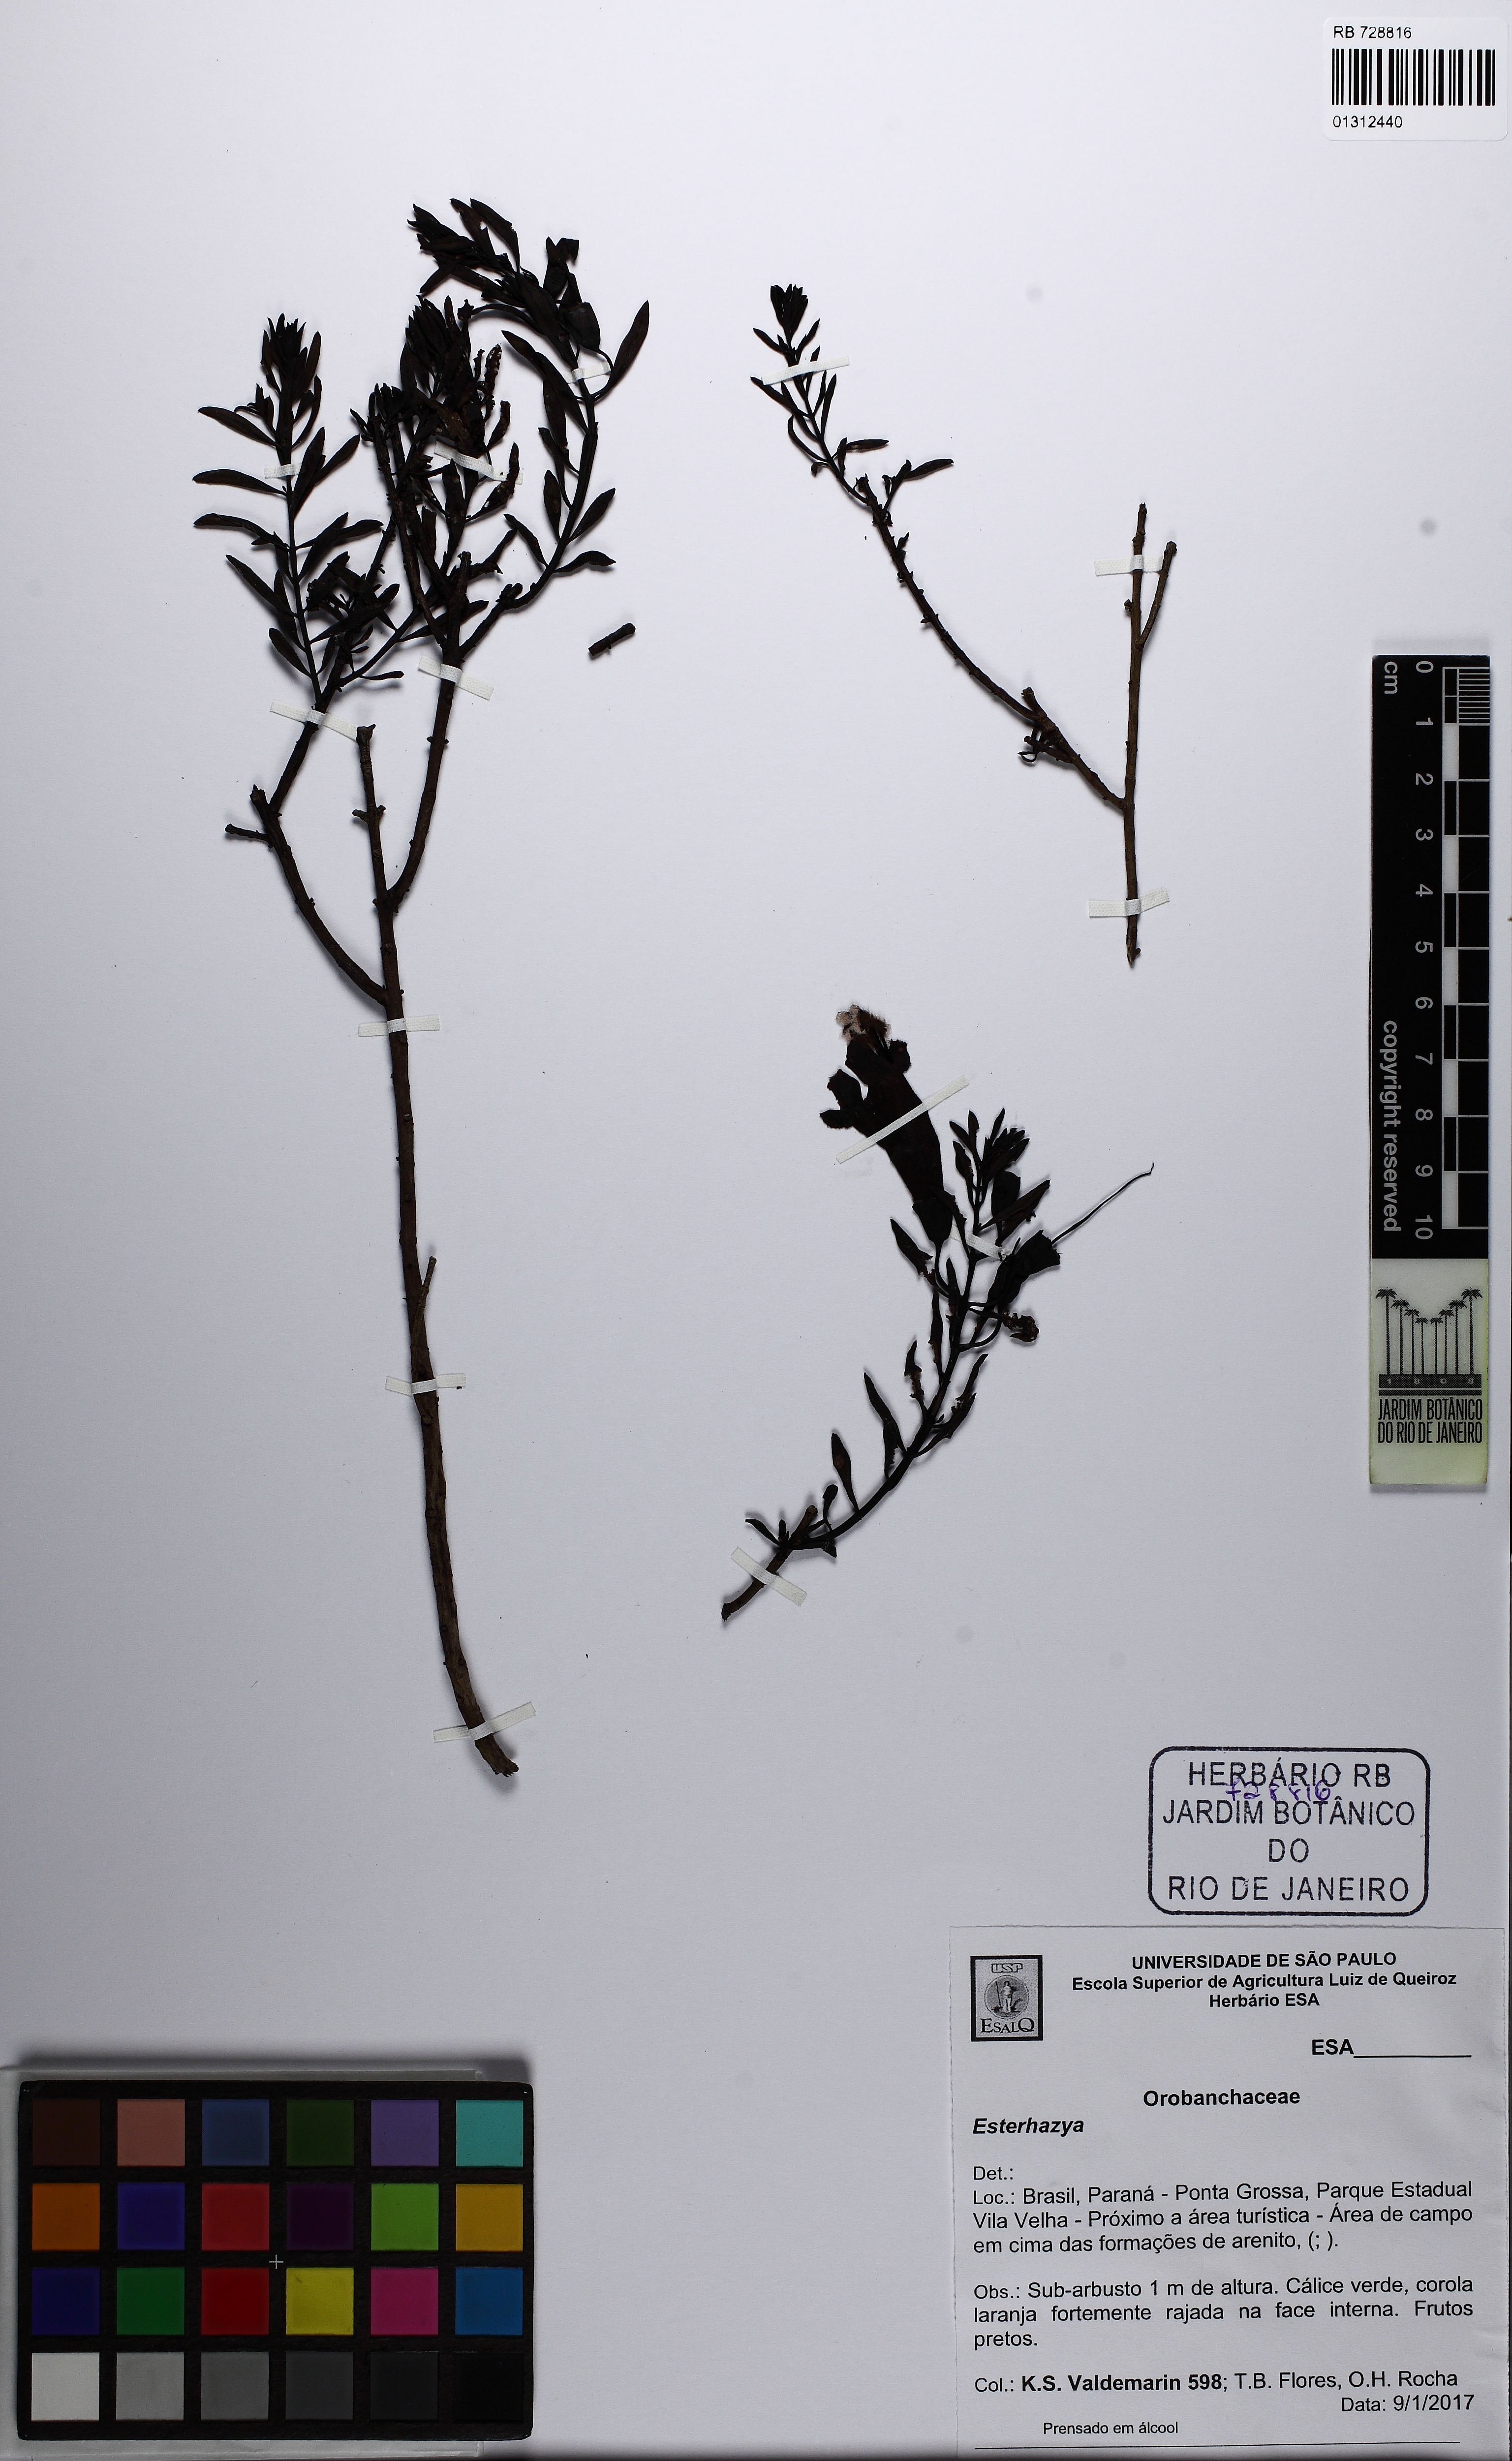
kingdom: Plantae
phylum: Tracheophyta
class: Magnoliopsida
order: Lamiales
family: Orobanchaceae
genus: Esterhazya
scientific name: Esterhazya
